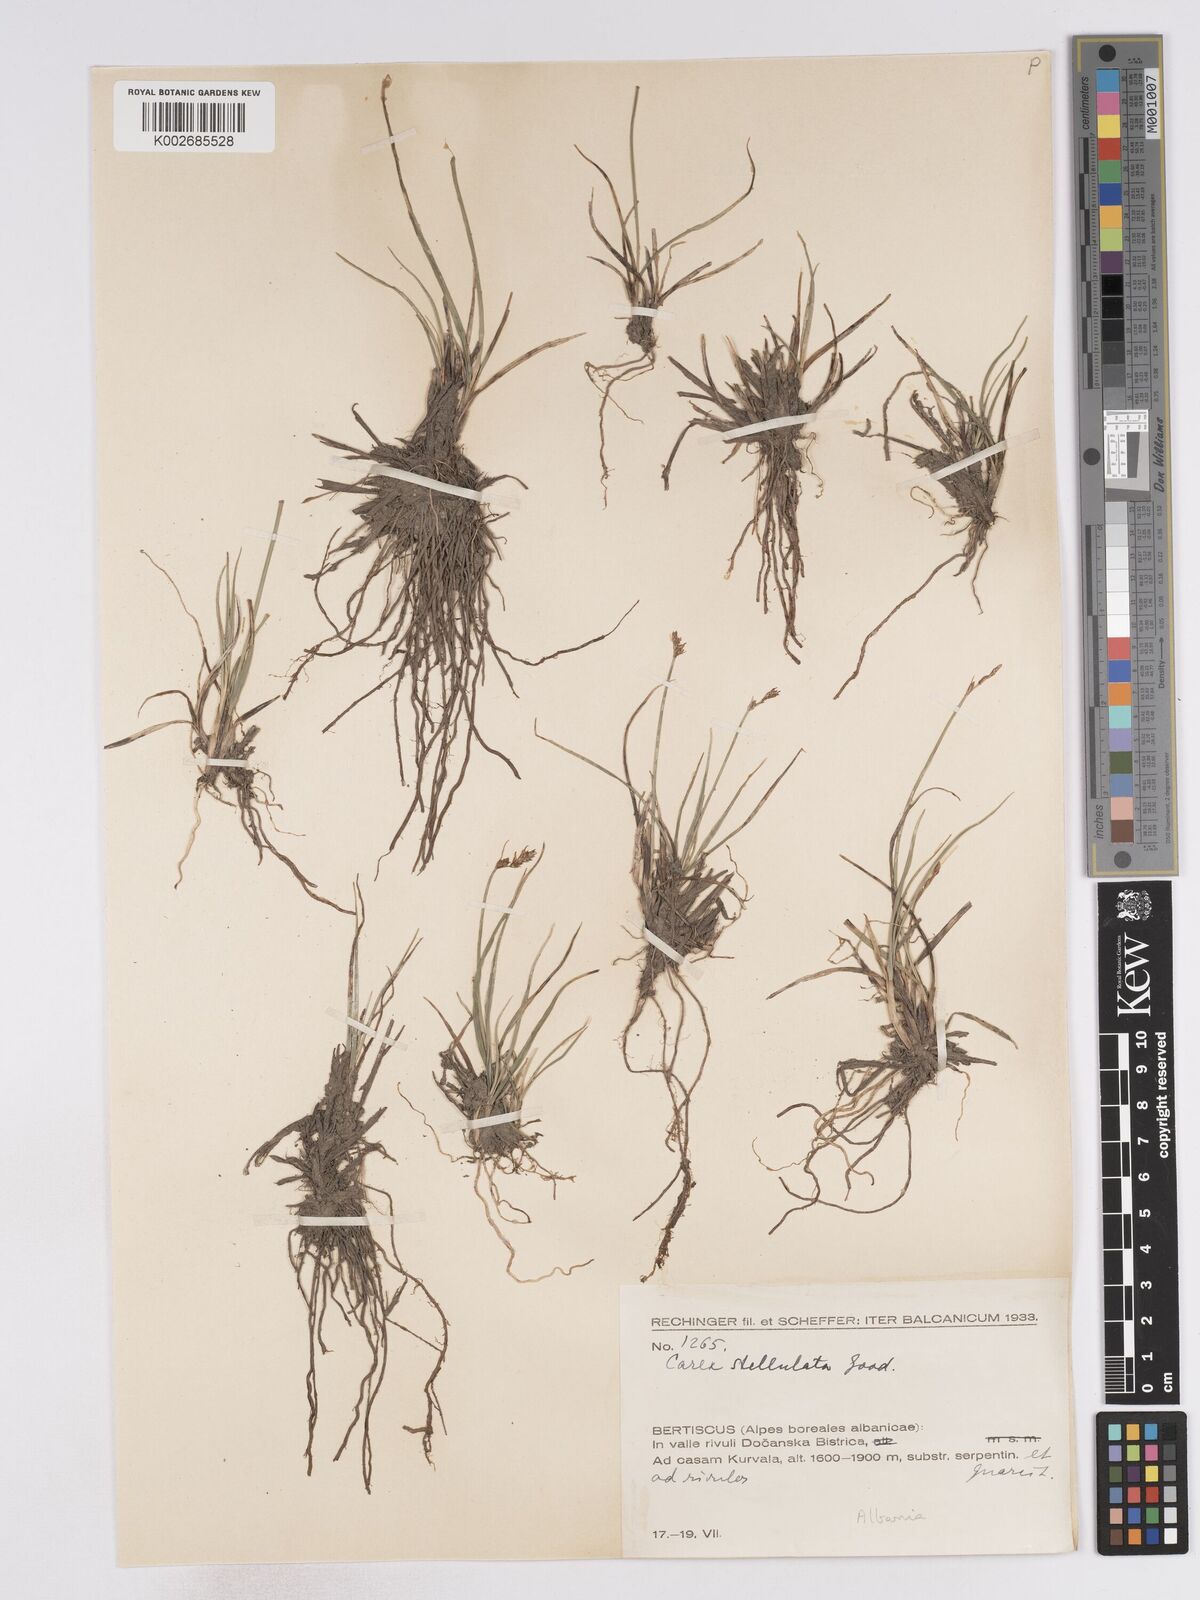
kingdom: Plantae
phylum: Tracheophyta
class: Liliopsida
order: Poales
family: Cyperaceae
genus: Carex
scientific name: Carex echinata
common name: Star sedge
